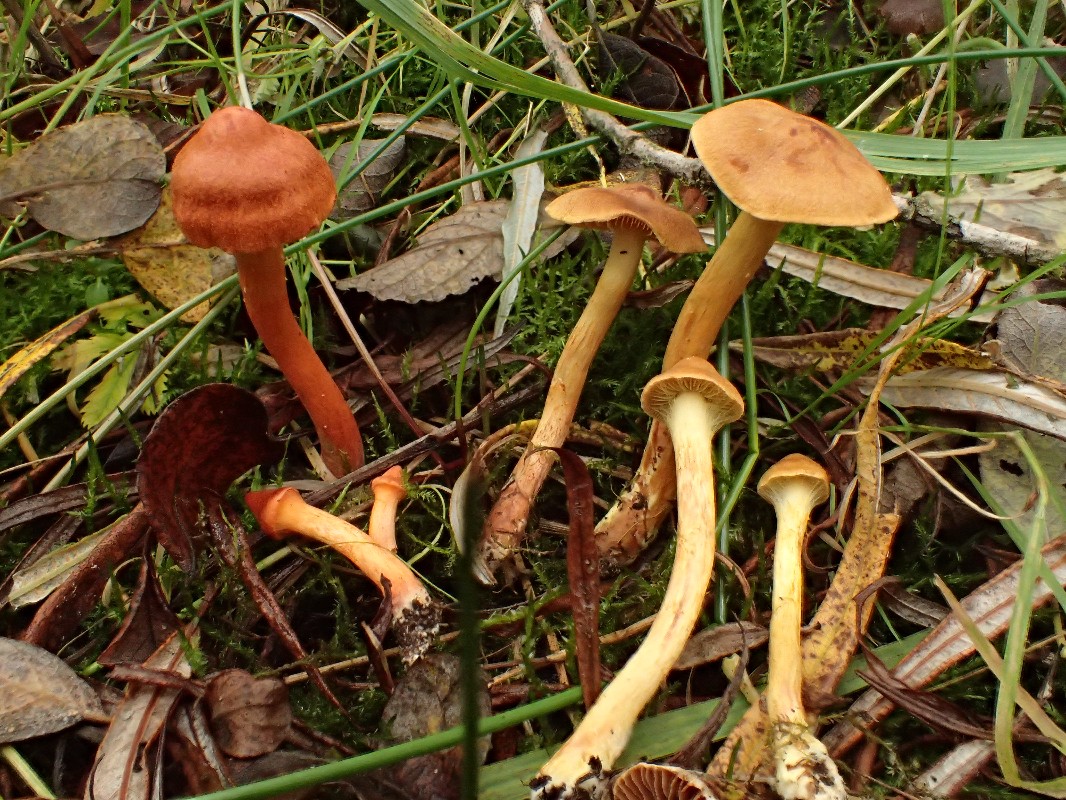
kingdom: Fungi
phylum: Basidiomycota
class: Agaricomycetes
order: Agaricales
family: Cortinariaceae
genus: Cortinarius
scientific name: Cortinarius uliginosus
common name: mose-slørhat
